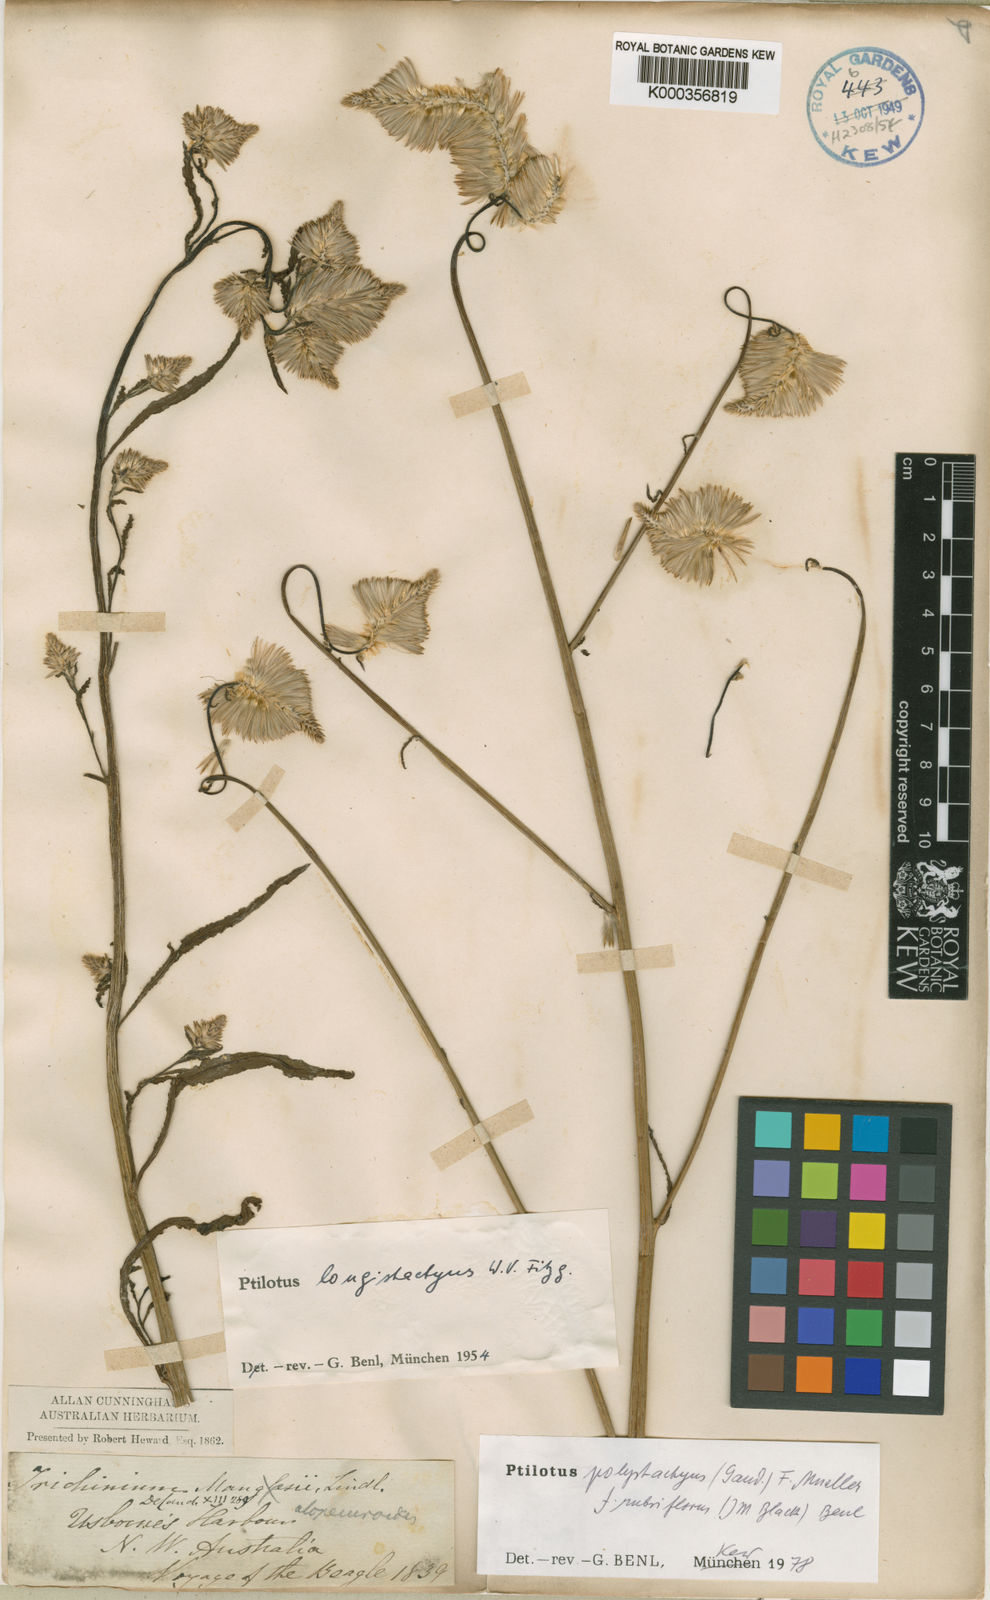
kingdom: Plantae
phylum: Tracheophyta
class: Magnoliopsida
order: Caryophyllales
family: Amaranthaceae
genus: Ptilotus
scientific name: Ptilotus
